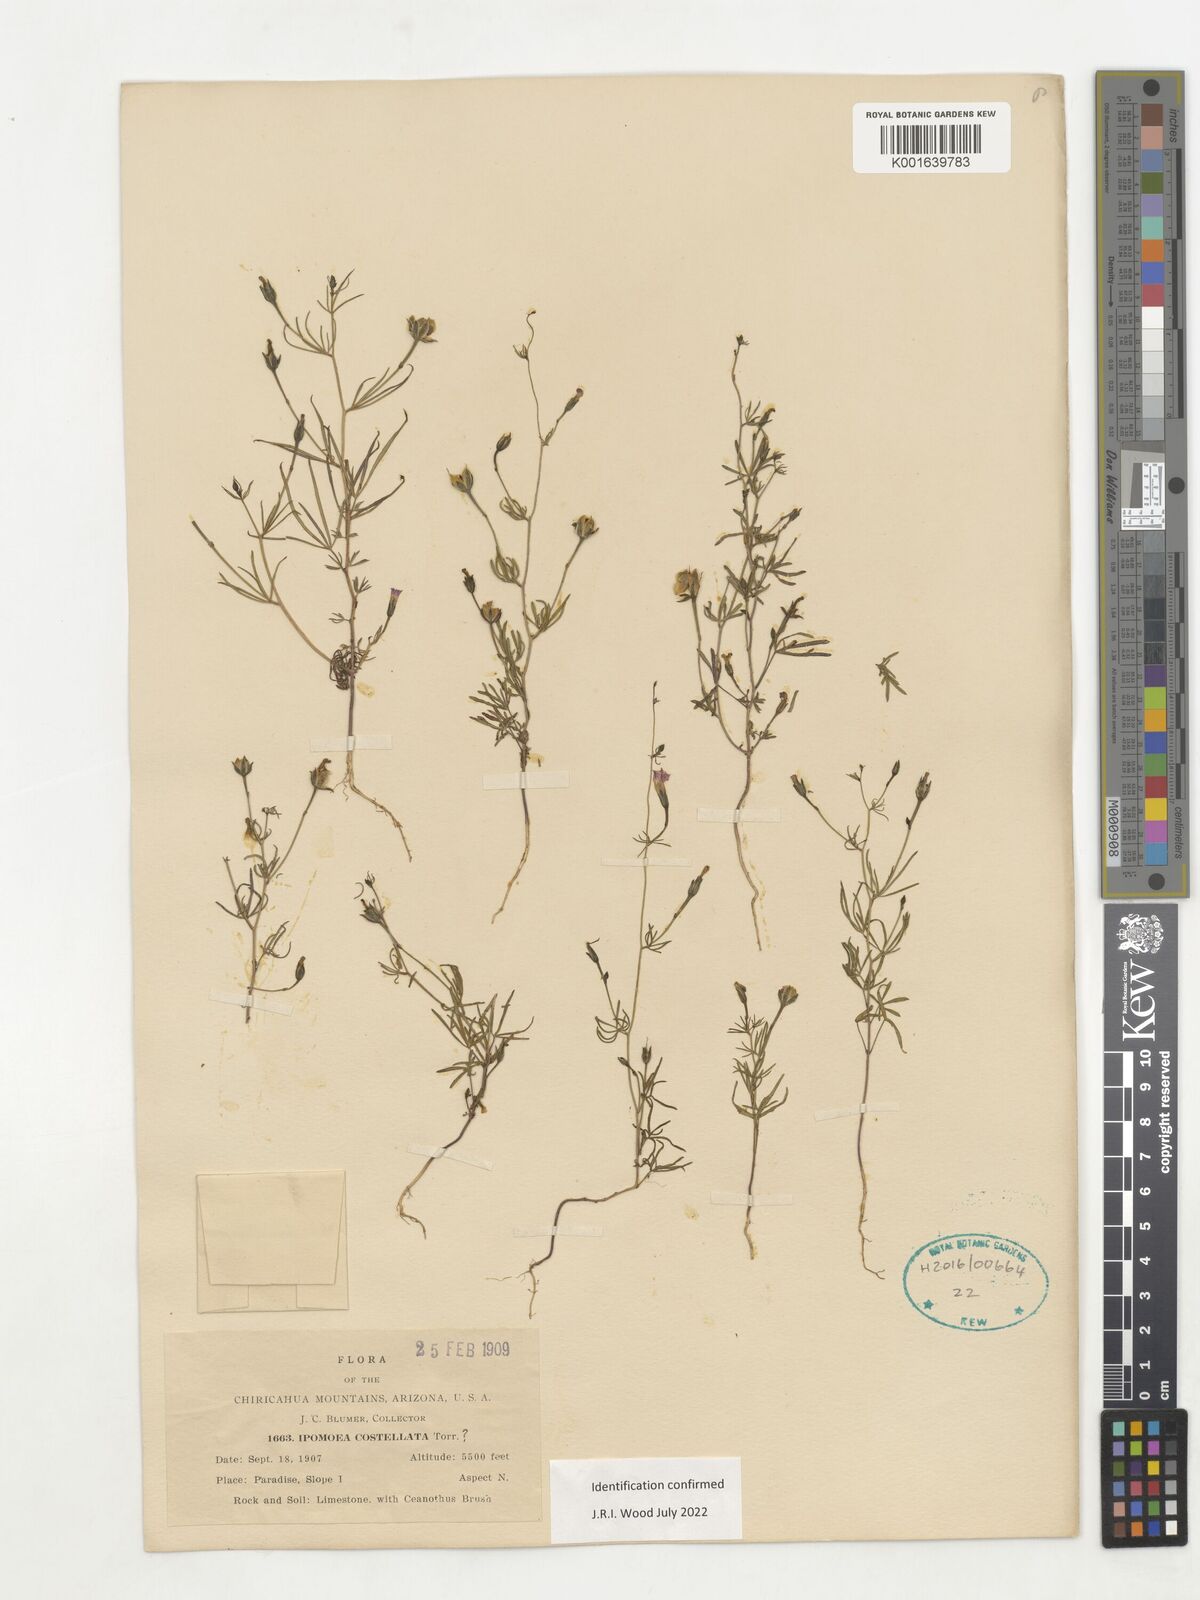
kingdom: Plantae
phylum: Tracheophyta
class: Magnoliopsida
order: Solanales
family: Convolvulaceae
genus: Ipomoea
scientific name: Ipomoea costellata
